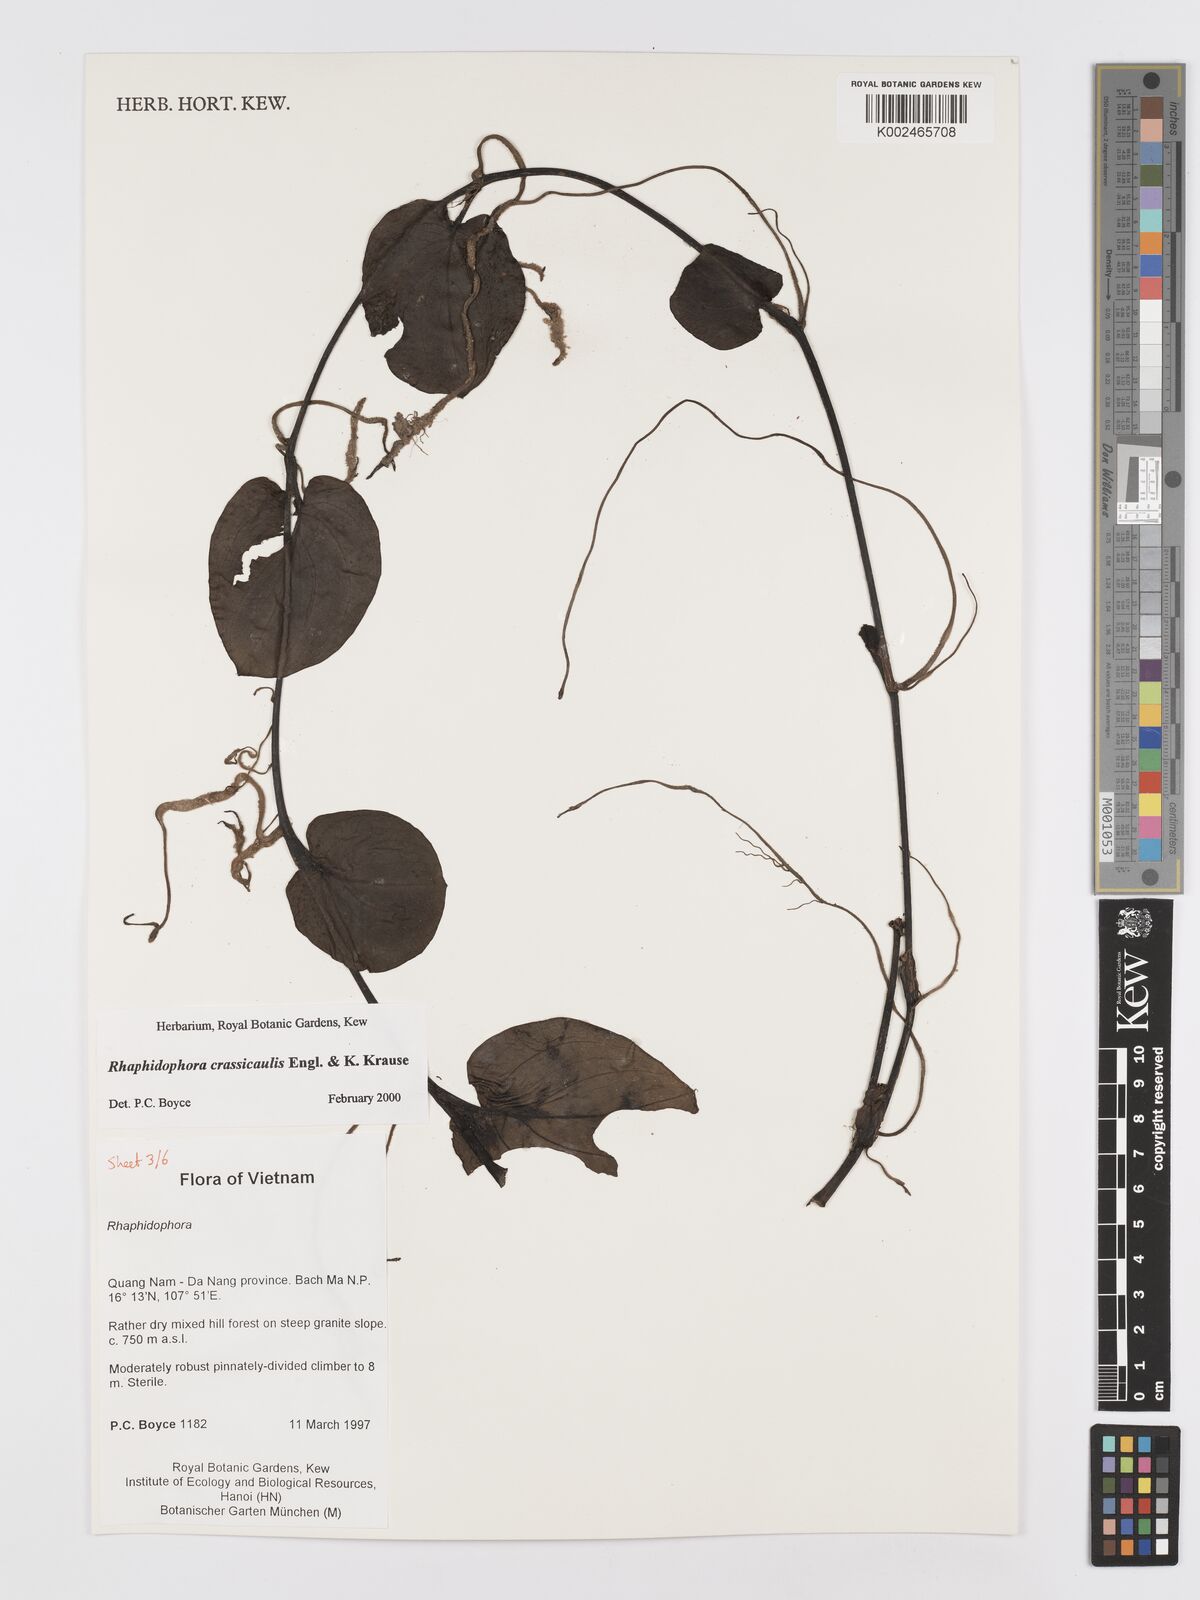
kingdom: Plantae
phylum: Tracheophyta
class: Liliopsida
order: Alismatales
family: Araceae
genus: Rhaphidophora
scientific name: Rhaphidophora crassicaulis
